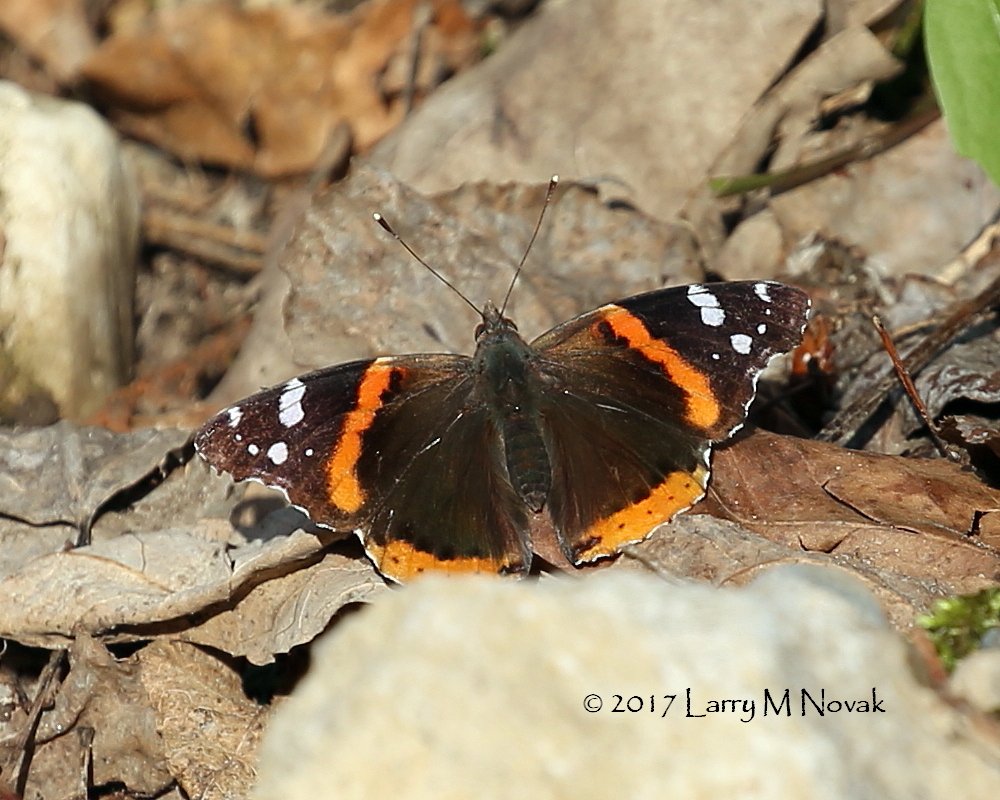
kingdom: Animalia
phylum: Arthropoda
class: Insecta
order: Lepidoptera
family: Nymphalidae
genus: Vanessa
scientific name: Vanessa atalanta
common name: Red Admiral
